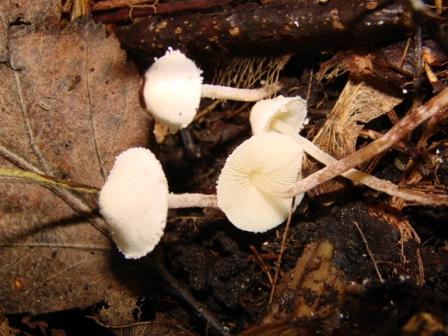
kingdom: Fungi
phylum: Basidiomycota
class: Agaricomycetes
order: Agaricales
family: Agaricaceae
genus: Cystolepiota
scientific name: Cystolepiota seminuda
